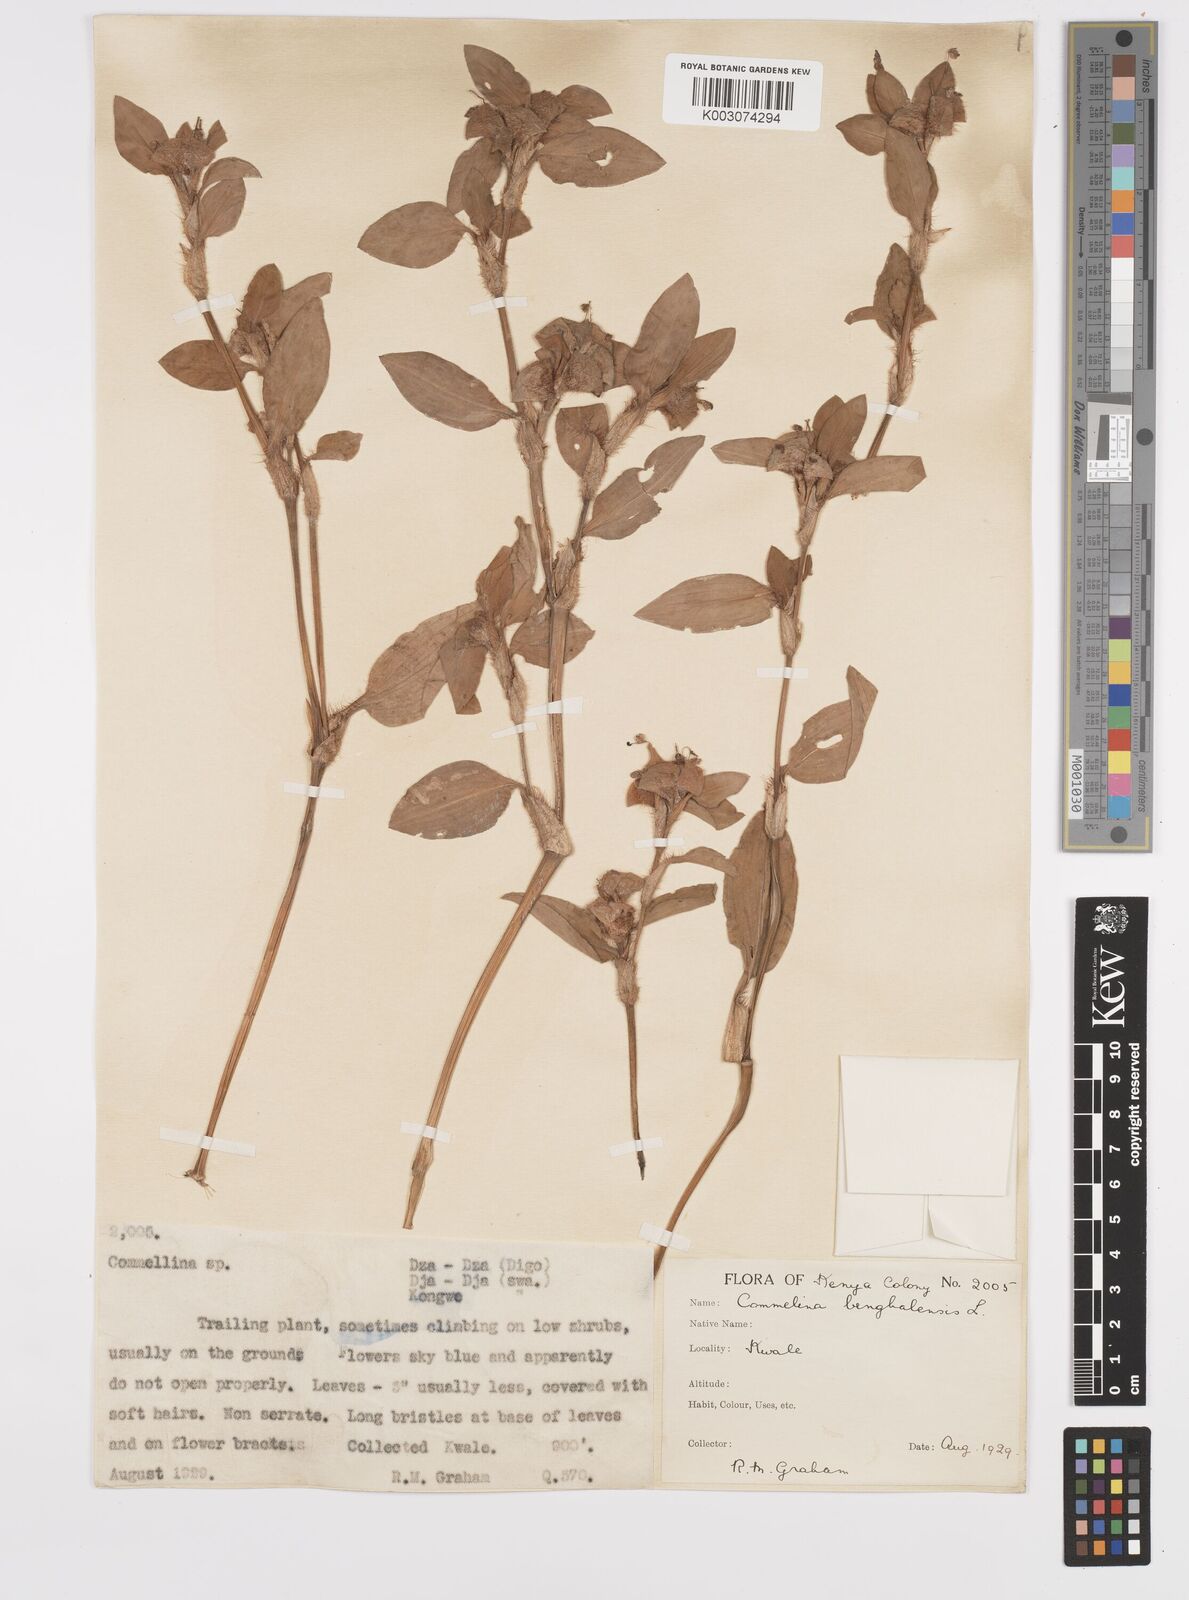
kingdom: Plantae
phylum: Tracheophyta
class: Liliopsida
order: Commelinales
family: Commelinaceae
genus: Commelina
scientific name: Commelina benghalensis
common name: Jio
